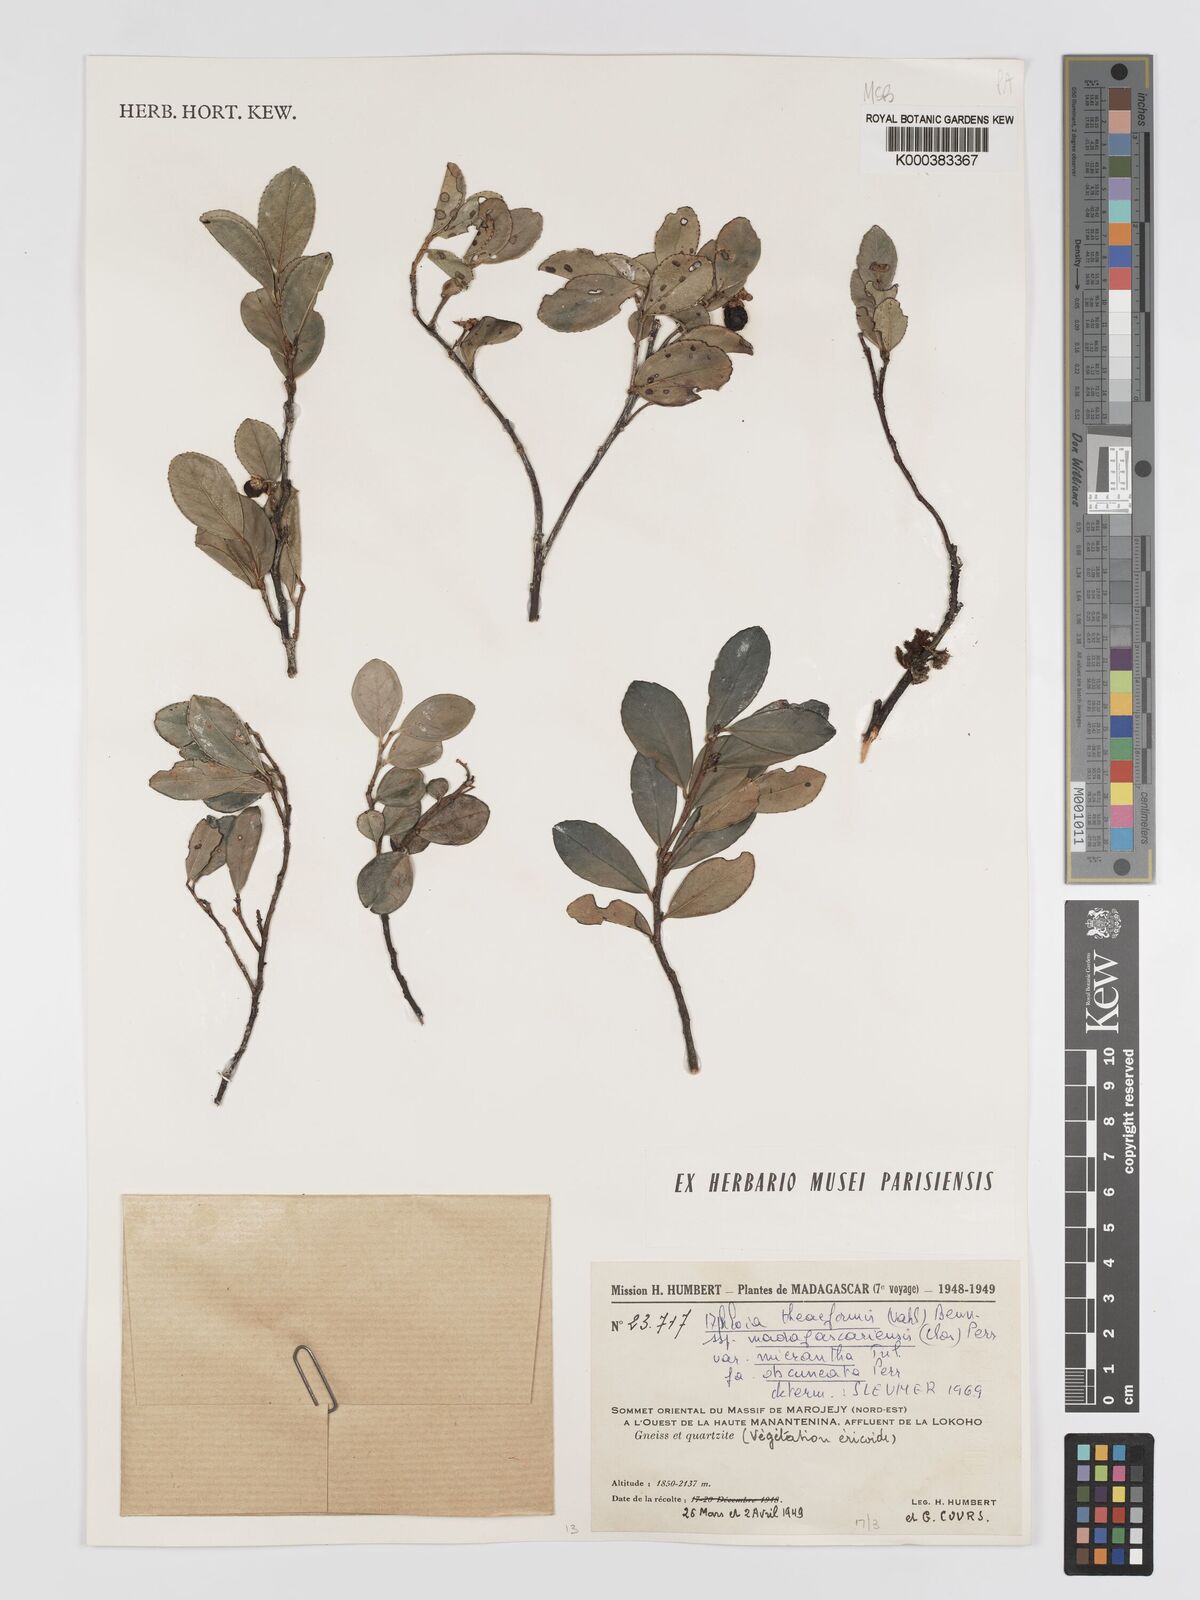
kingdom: Plantae
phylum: Tracheophyta
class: Magnoliopsida
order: Crossosomatales
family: Aphloiaceae
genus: Aphloia
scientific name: Aphloia theiformis
